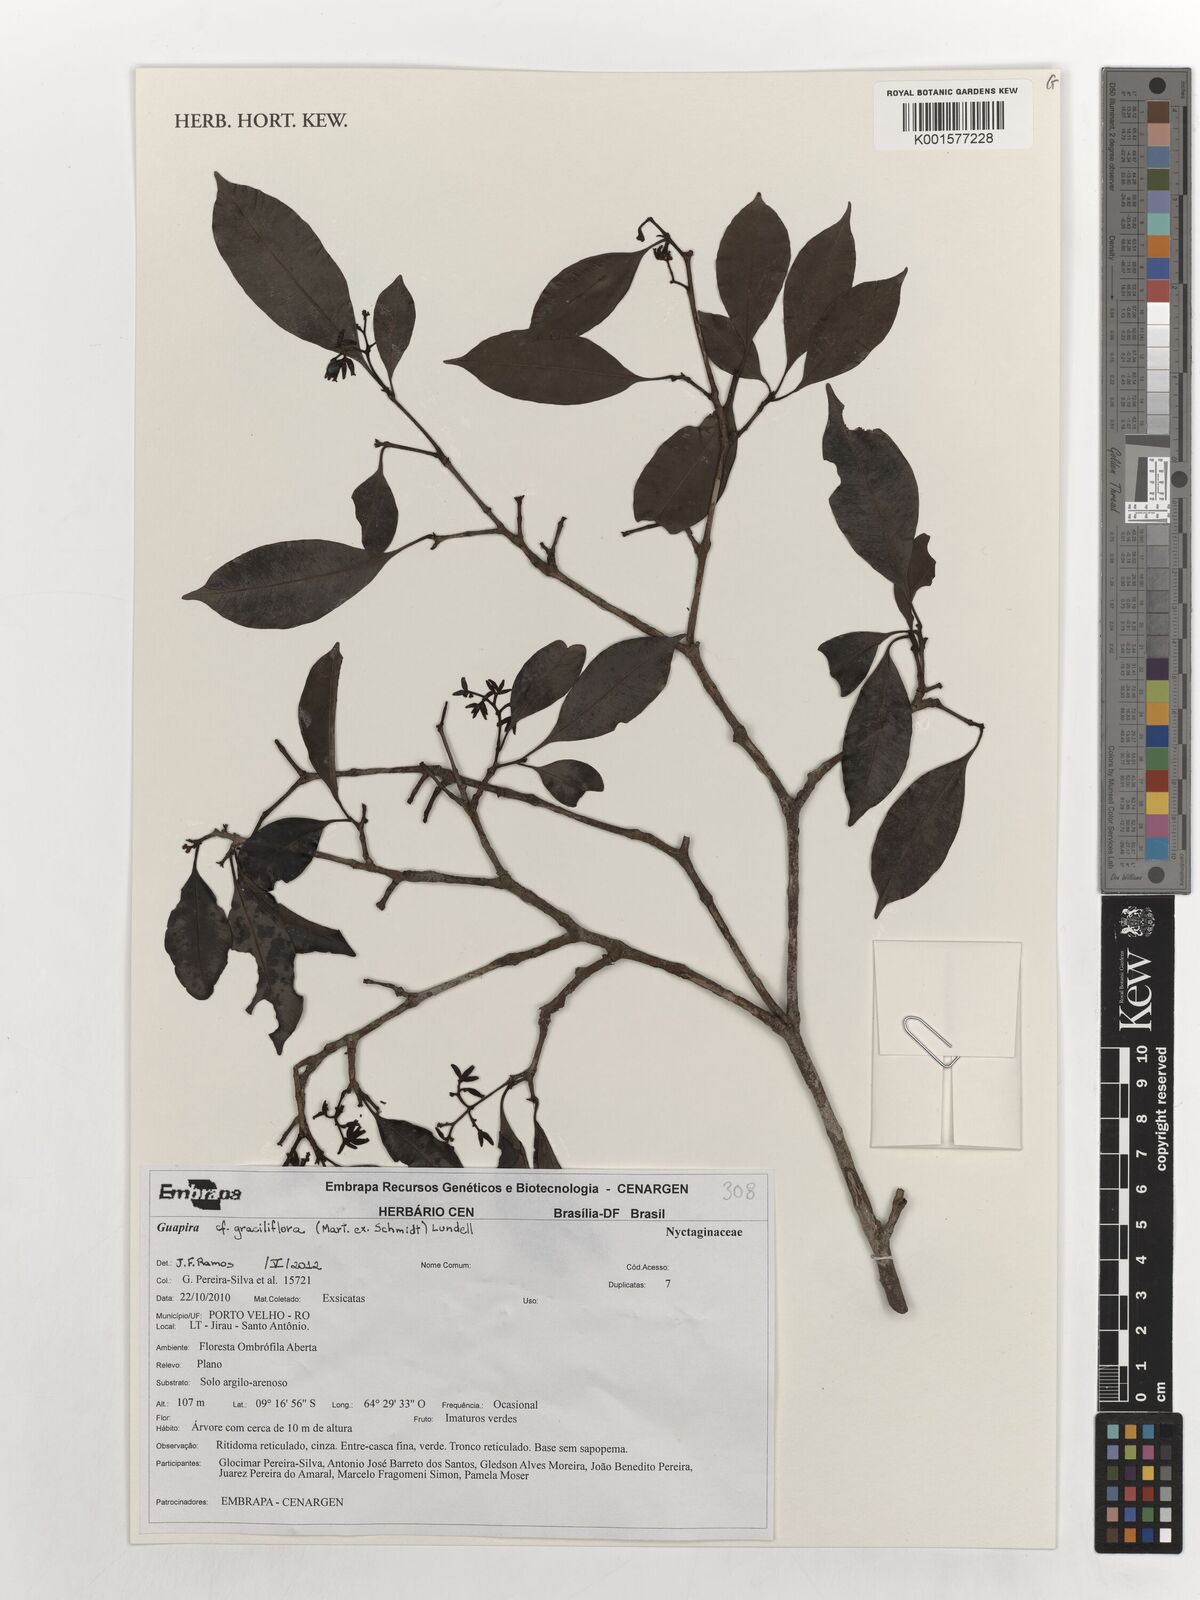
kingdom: Plantae
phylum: Tracheophyta
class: Magnoliopsida
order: Caryophyllales
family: Nyctaginaceae
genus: Guapira
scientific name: Guapira graciliflora
